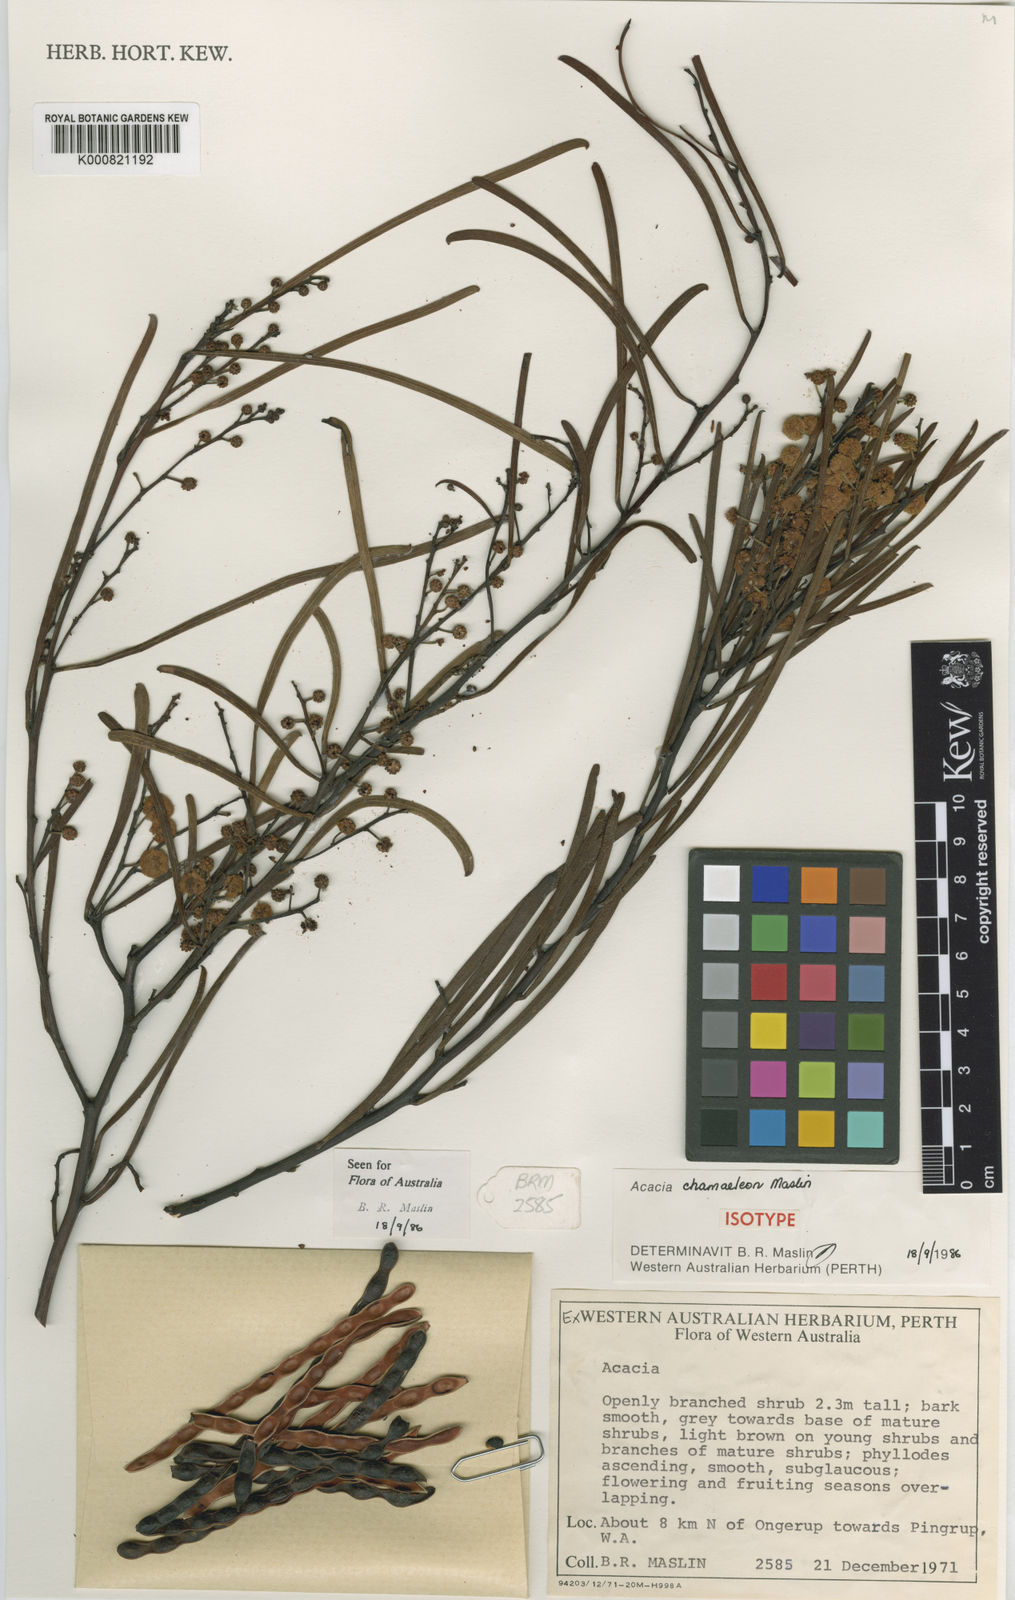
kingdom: Plantae
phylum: Tracheophyta
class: Magnoliopsida
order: Fabales
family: Fabaceae
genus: Acacia
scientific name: Acacia chamaeleon
